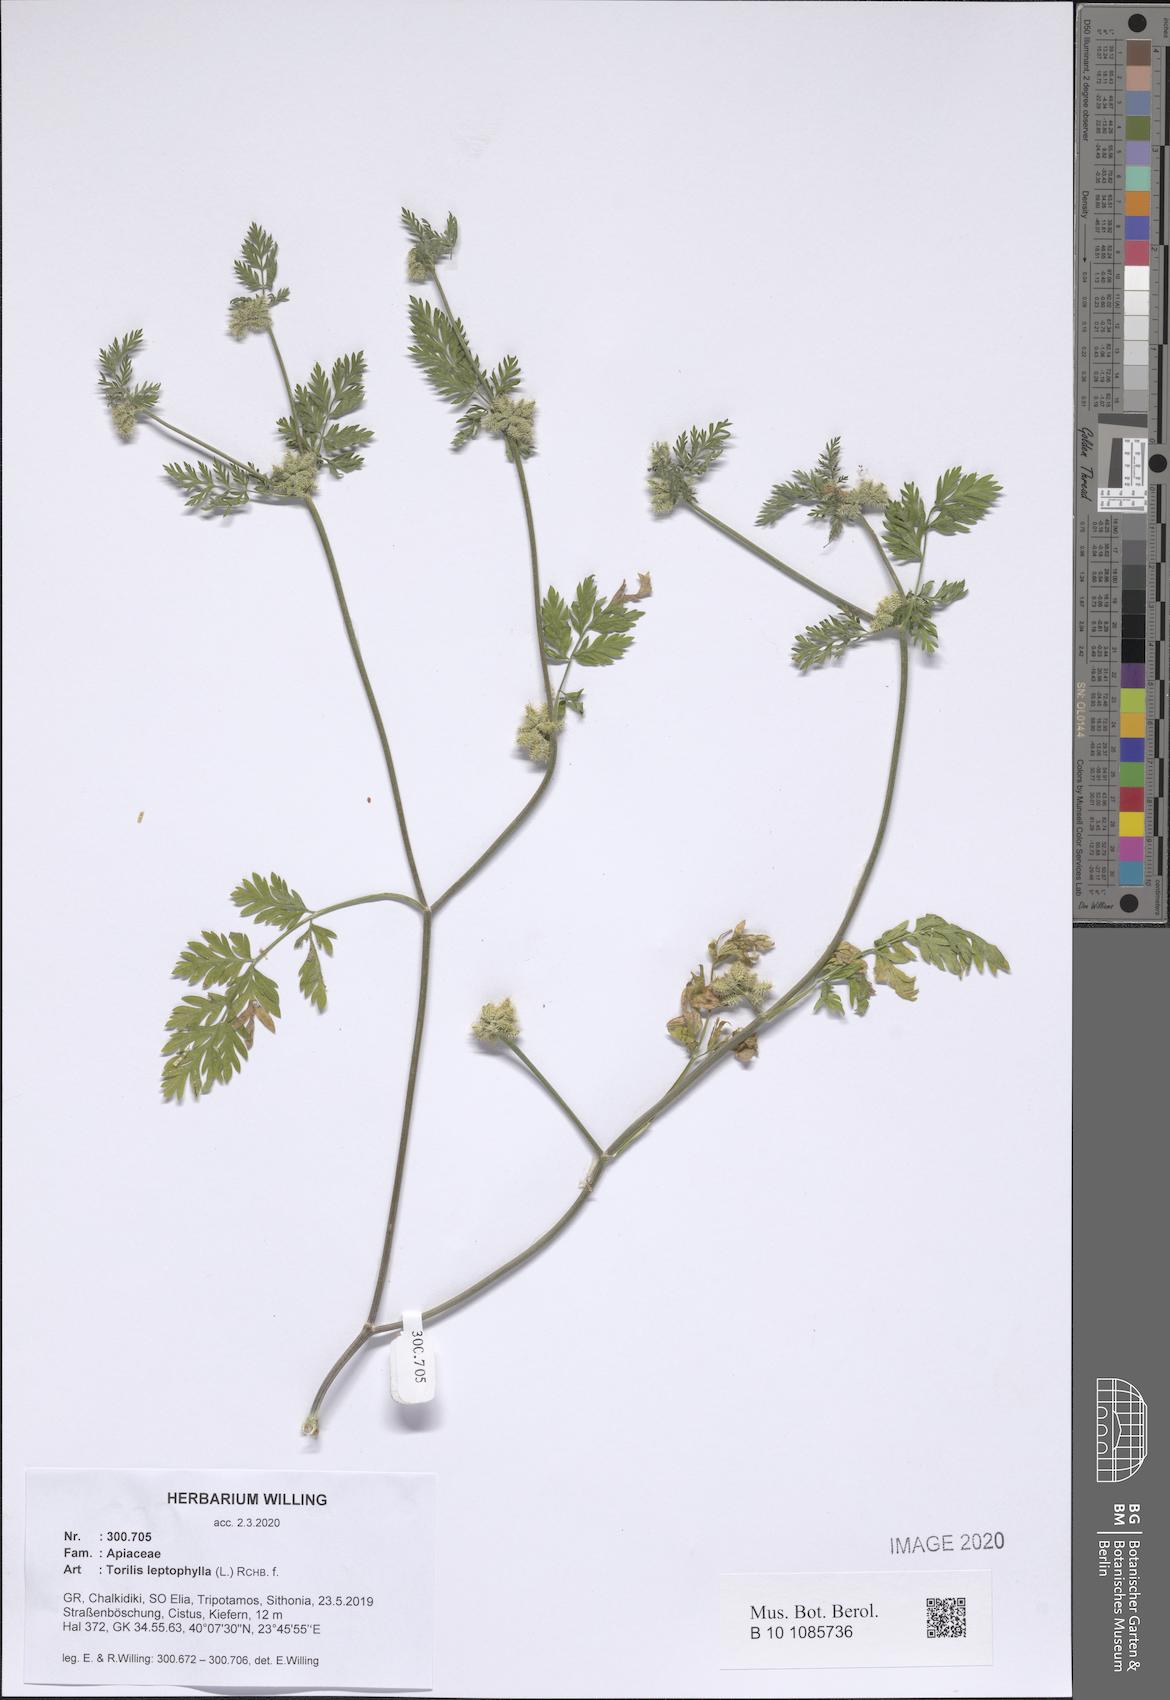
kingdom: Plantae
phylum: Tracheophyta
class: Magnoliopsida
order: Apiales
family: Apiaceae
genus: Torilis
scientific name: Torilis leptophylla
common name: Bristlefruit hedgeparsley
